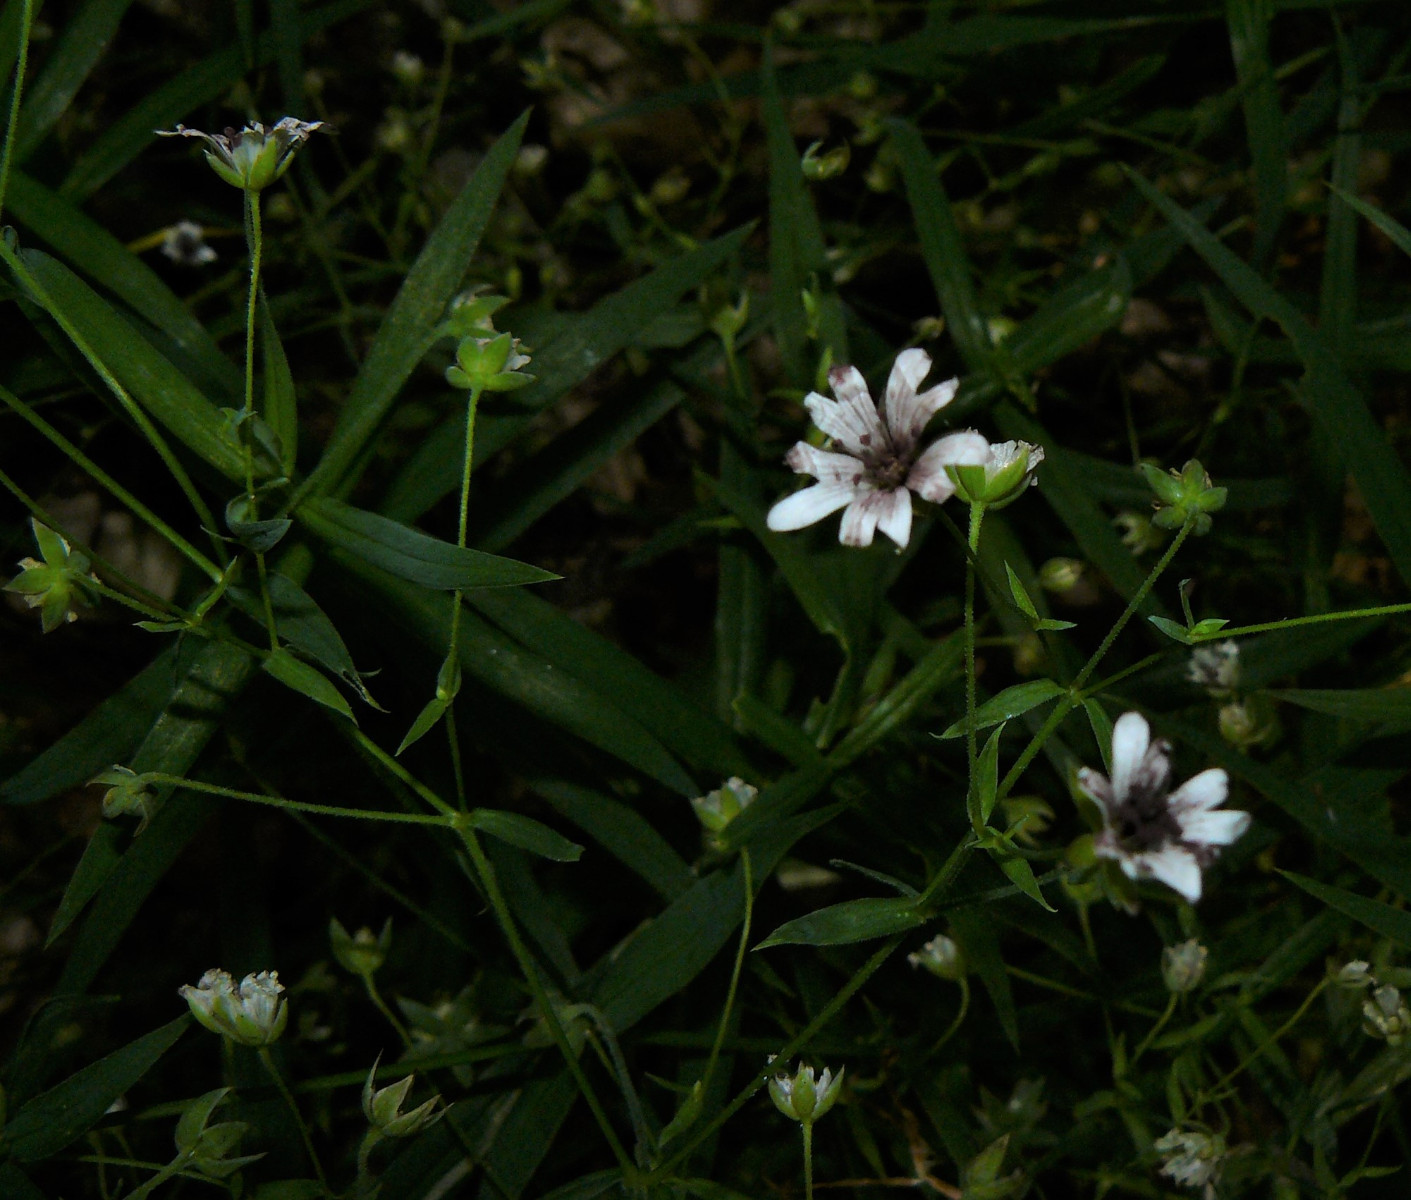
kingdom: Fungi
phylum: Basidiomycota
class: Microbotryomycetes
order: Microbotryales
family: Microbotryaceae
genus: Microbotryum
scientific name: Microbotryum stellariae
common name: fladstjerne-støvbladrust
